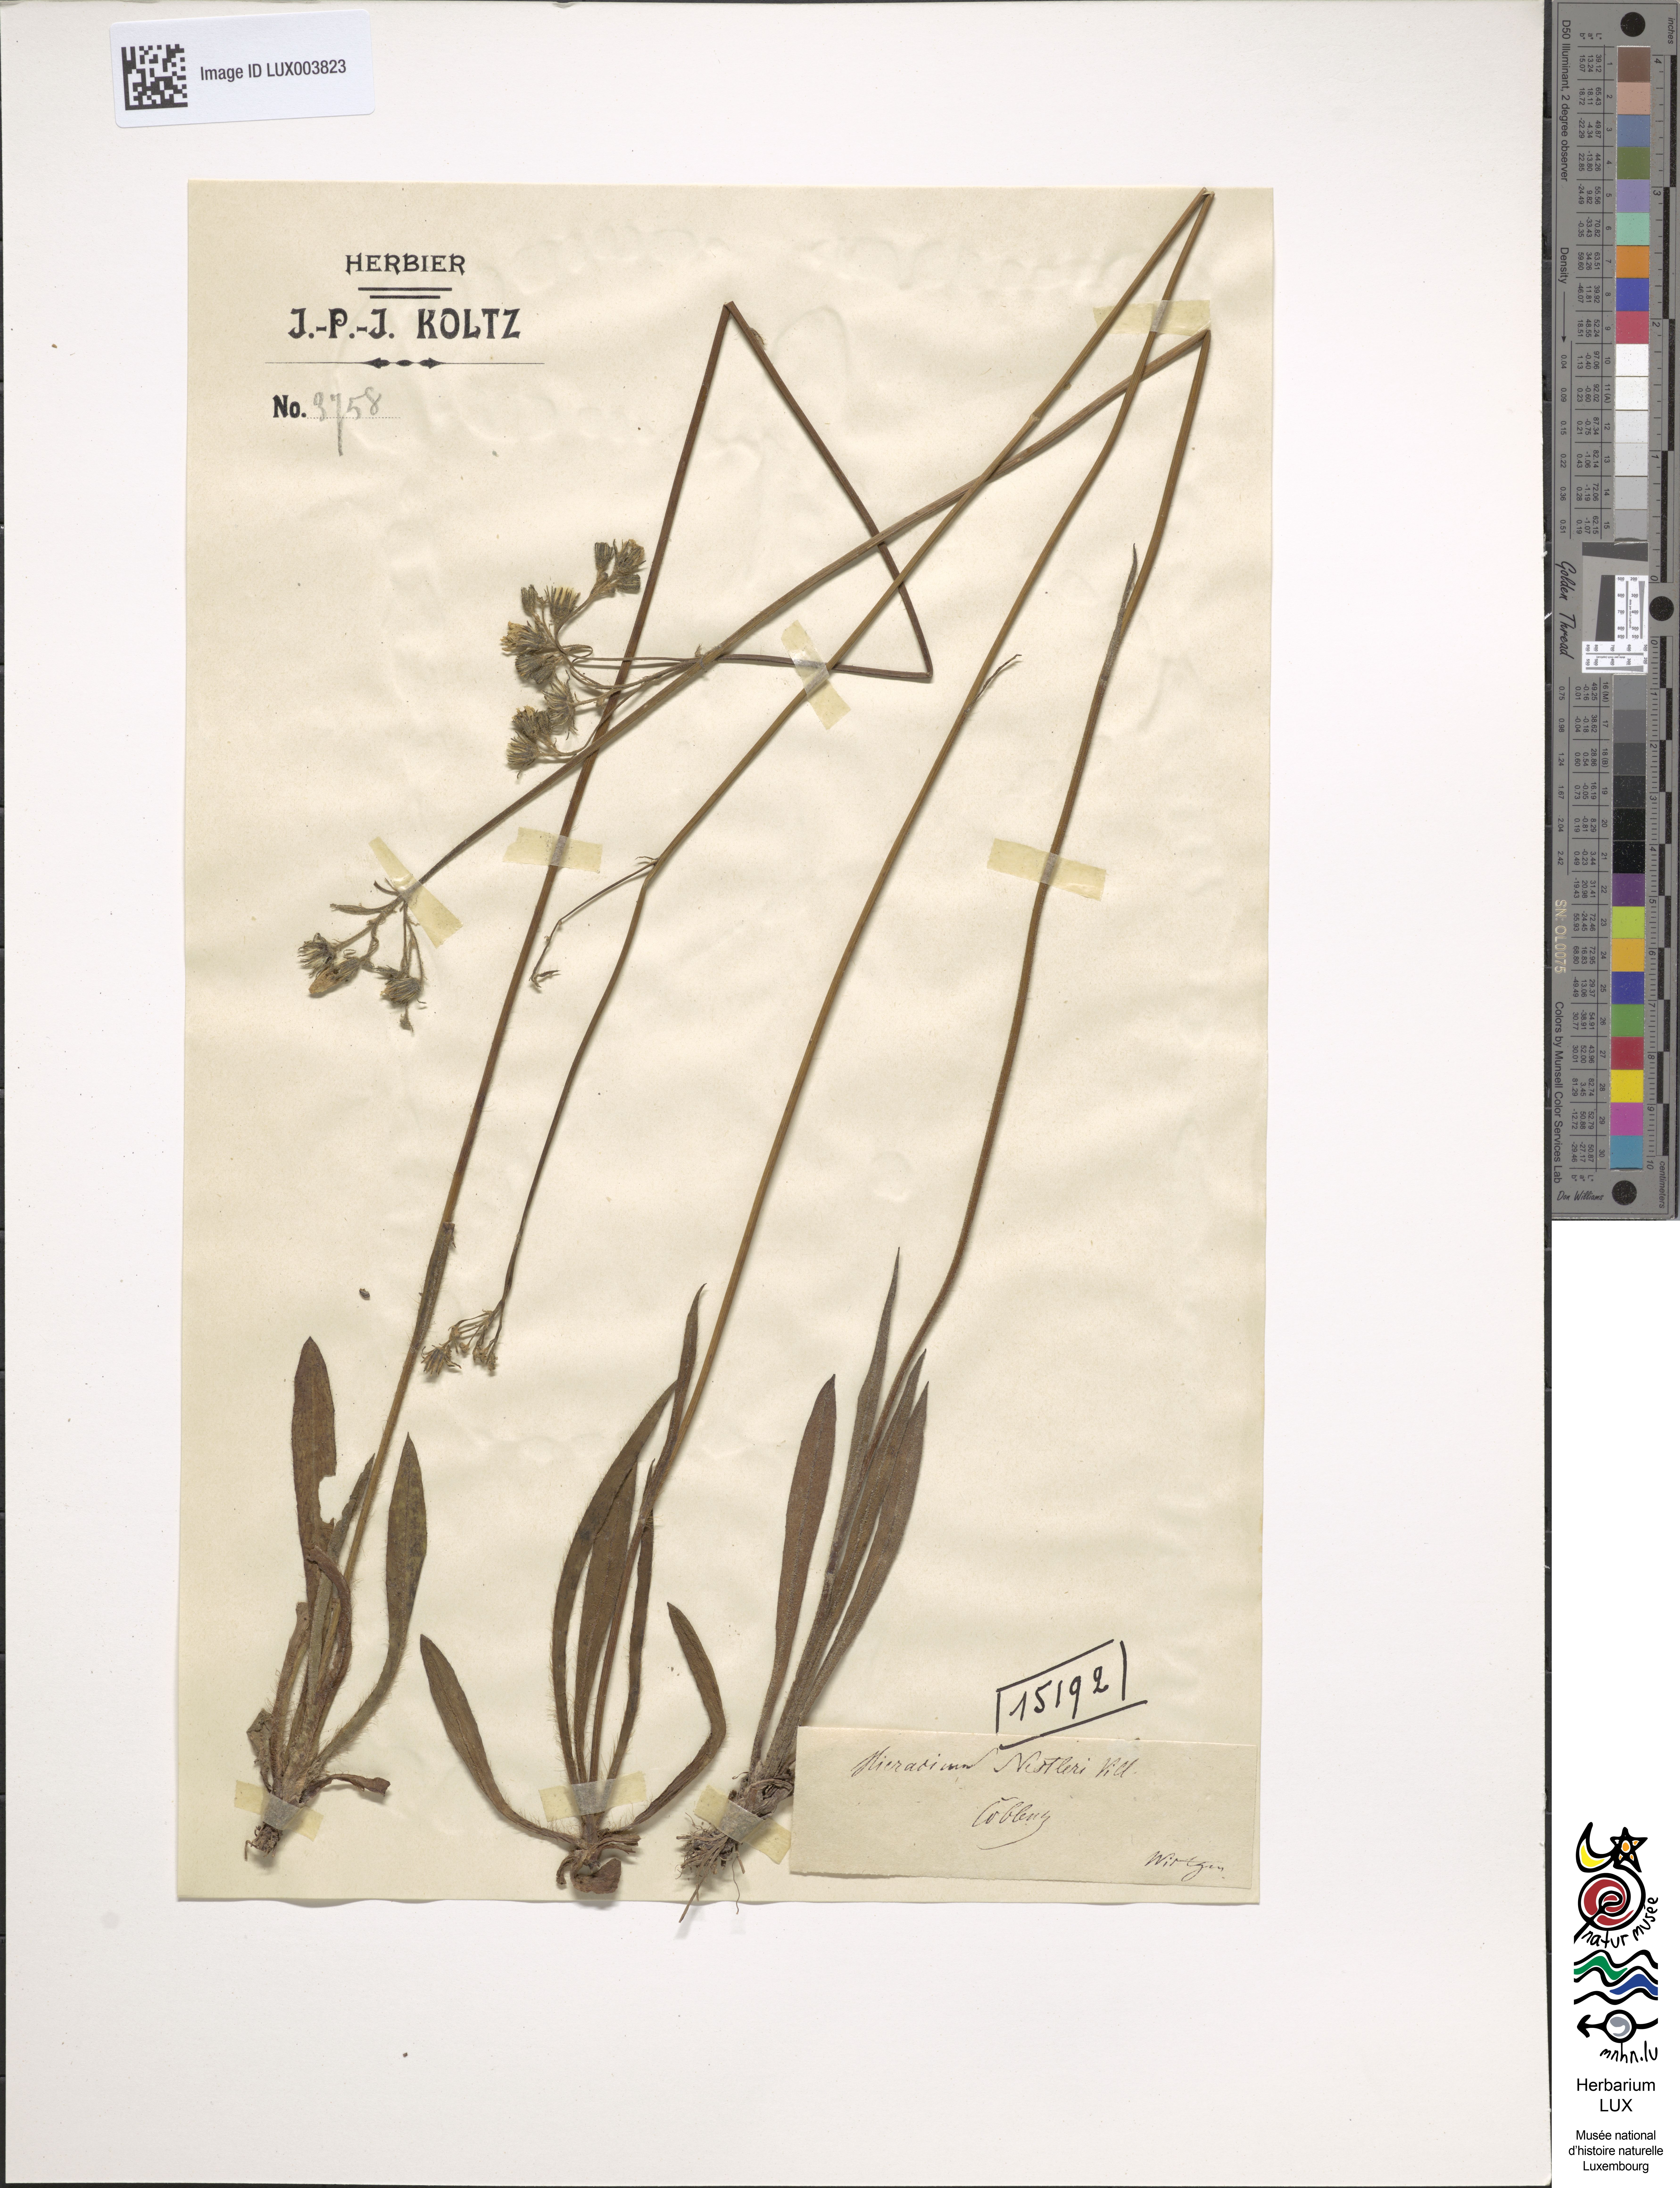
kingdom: Plantae
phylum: Tracheophyta
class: Magnoliopsida
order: Asterales
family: Asteraceae
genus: Pilosella
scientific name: Pilosella auriculoides
